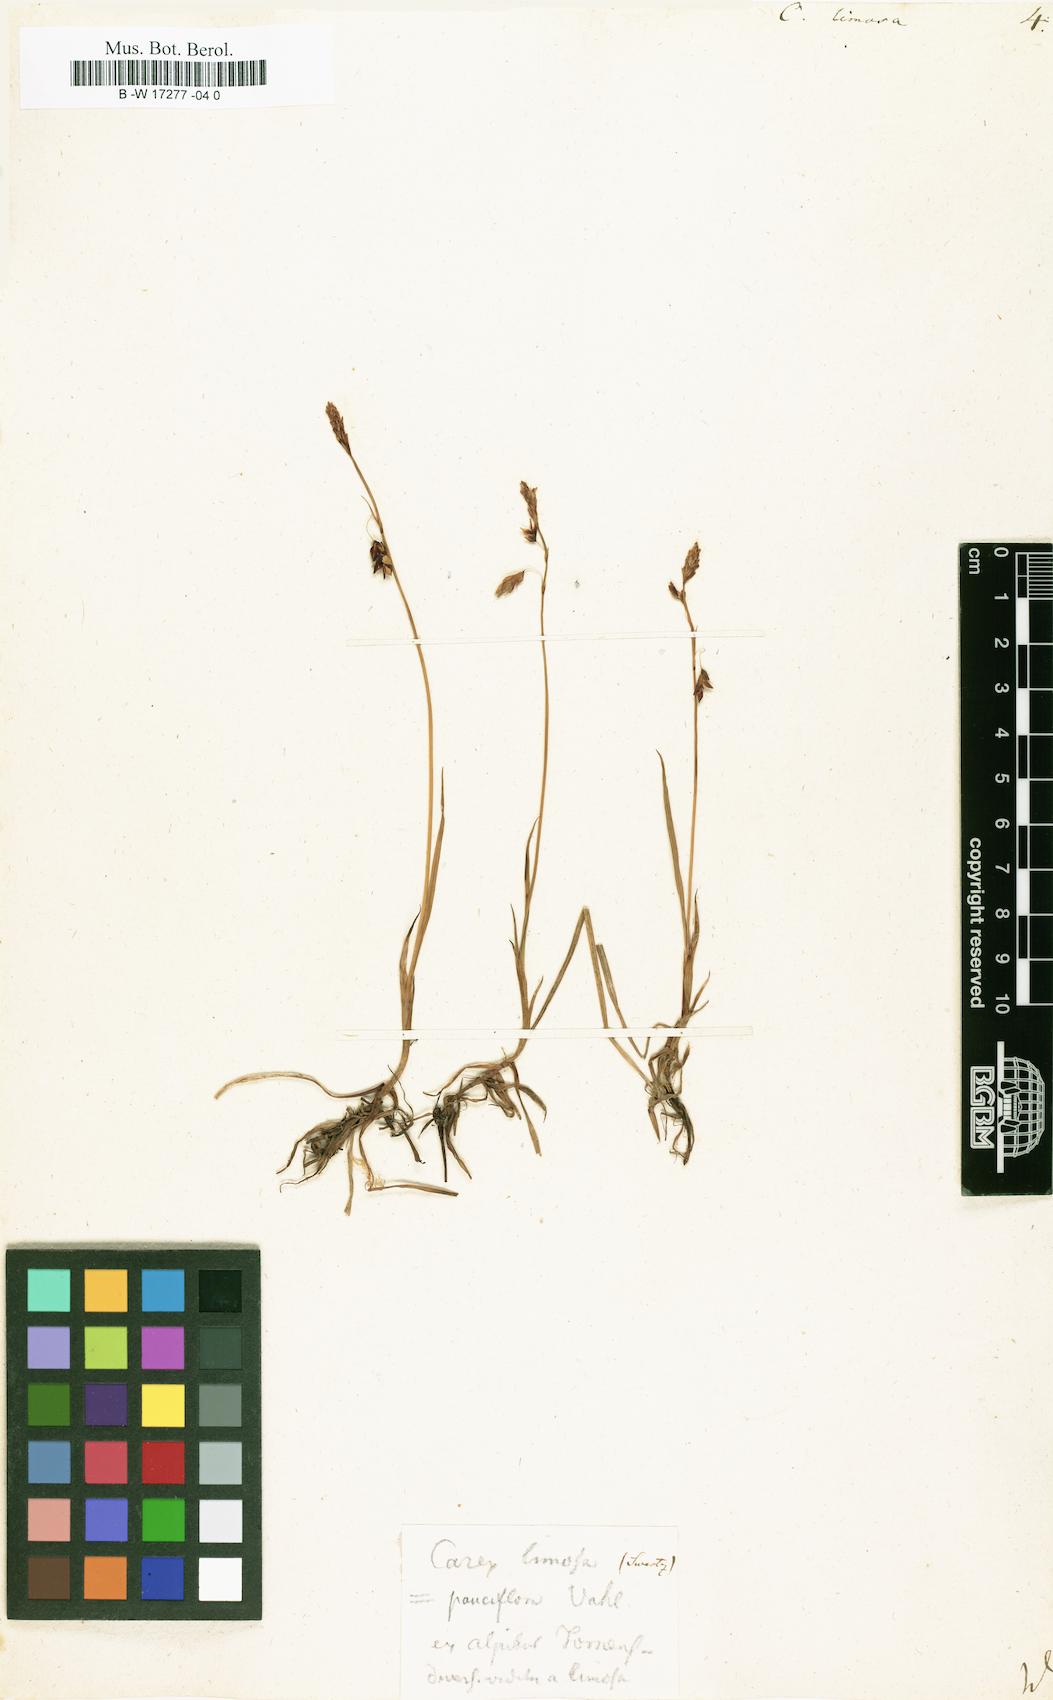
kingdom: Plantae
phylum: Tracheophyta
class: Liliopsida
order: Poales
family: Cyperaceae
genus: Carex
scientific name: Carex limosa
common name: Bog sedge
